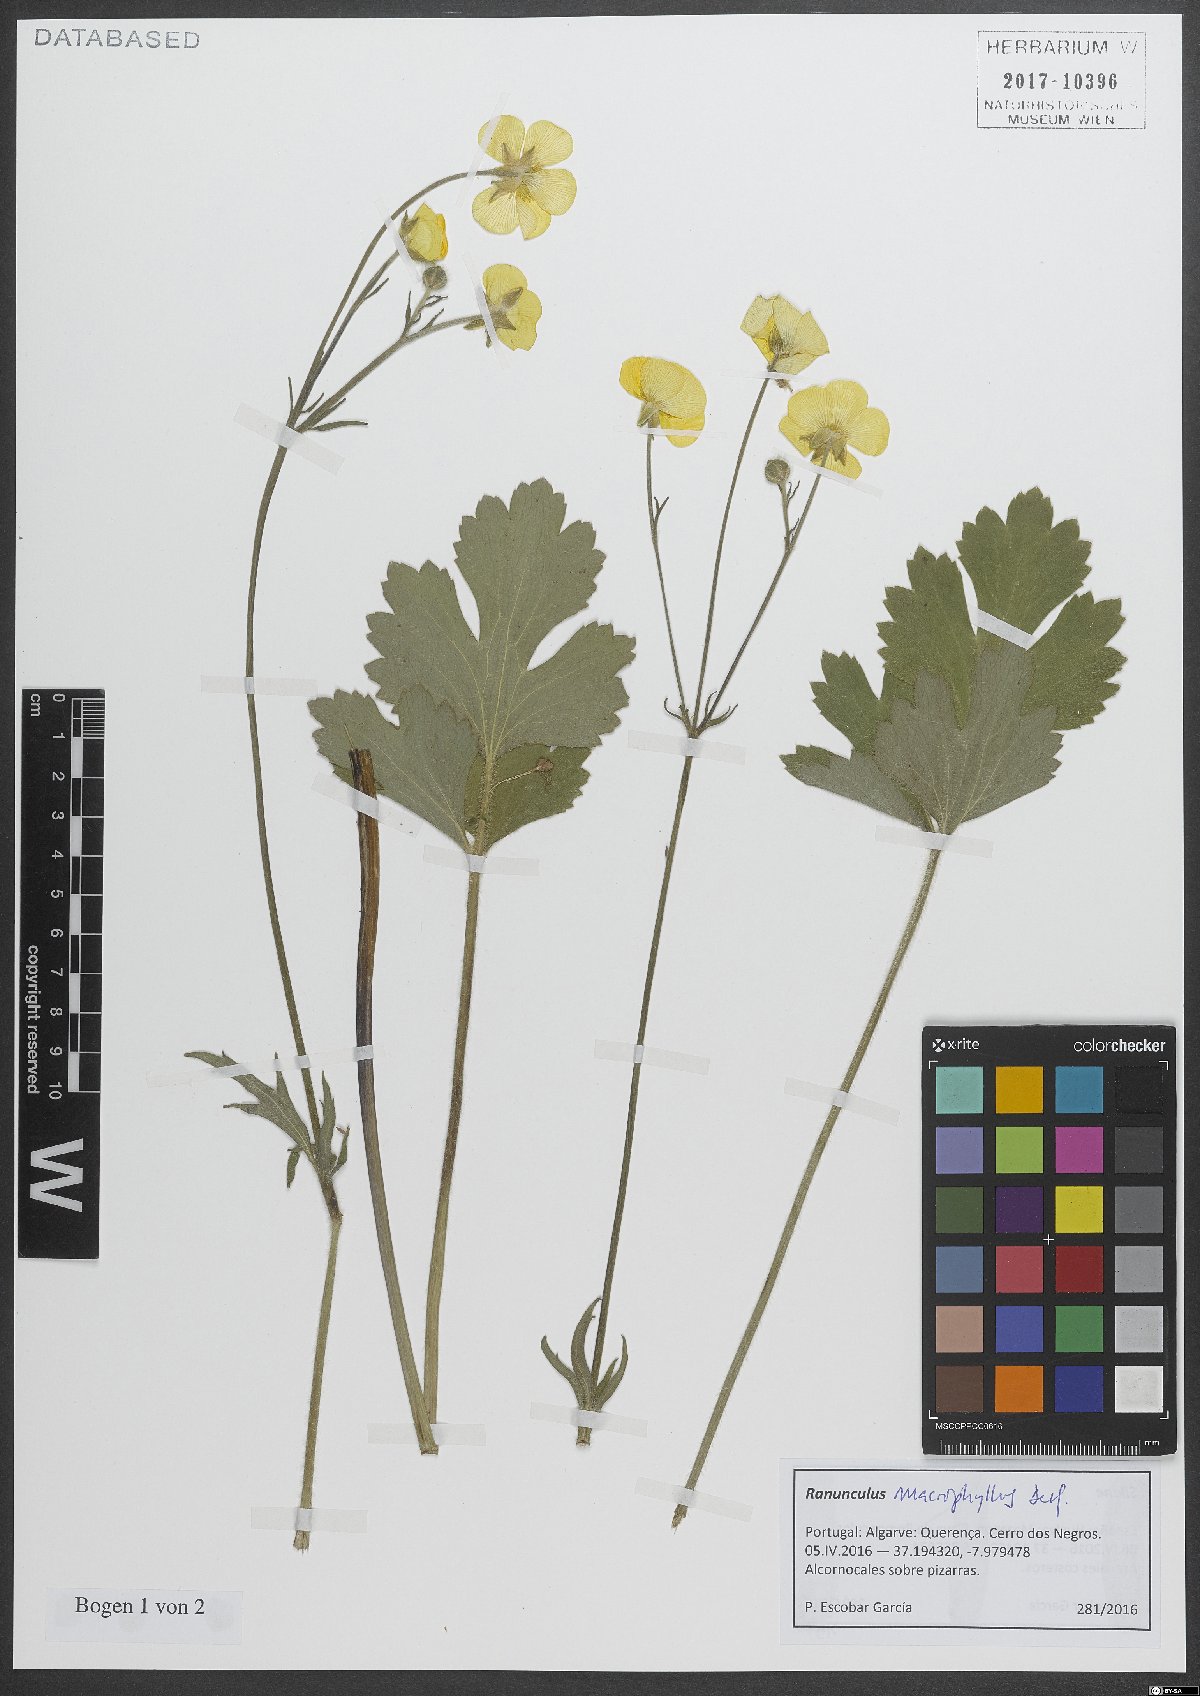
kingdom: Plantae
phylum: Tracheophyta
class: Magnoliopsida
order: Ranunculales
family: Ranunculaceae
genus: Ranunculus
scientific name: Ranunculus acris
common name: Meadow buttercup
